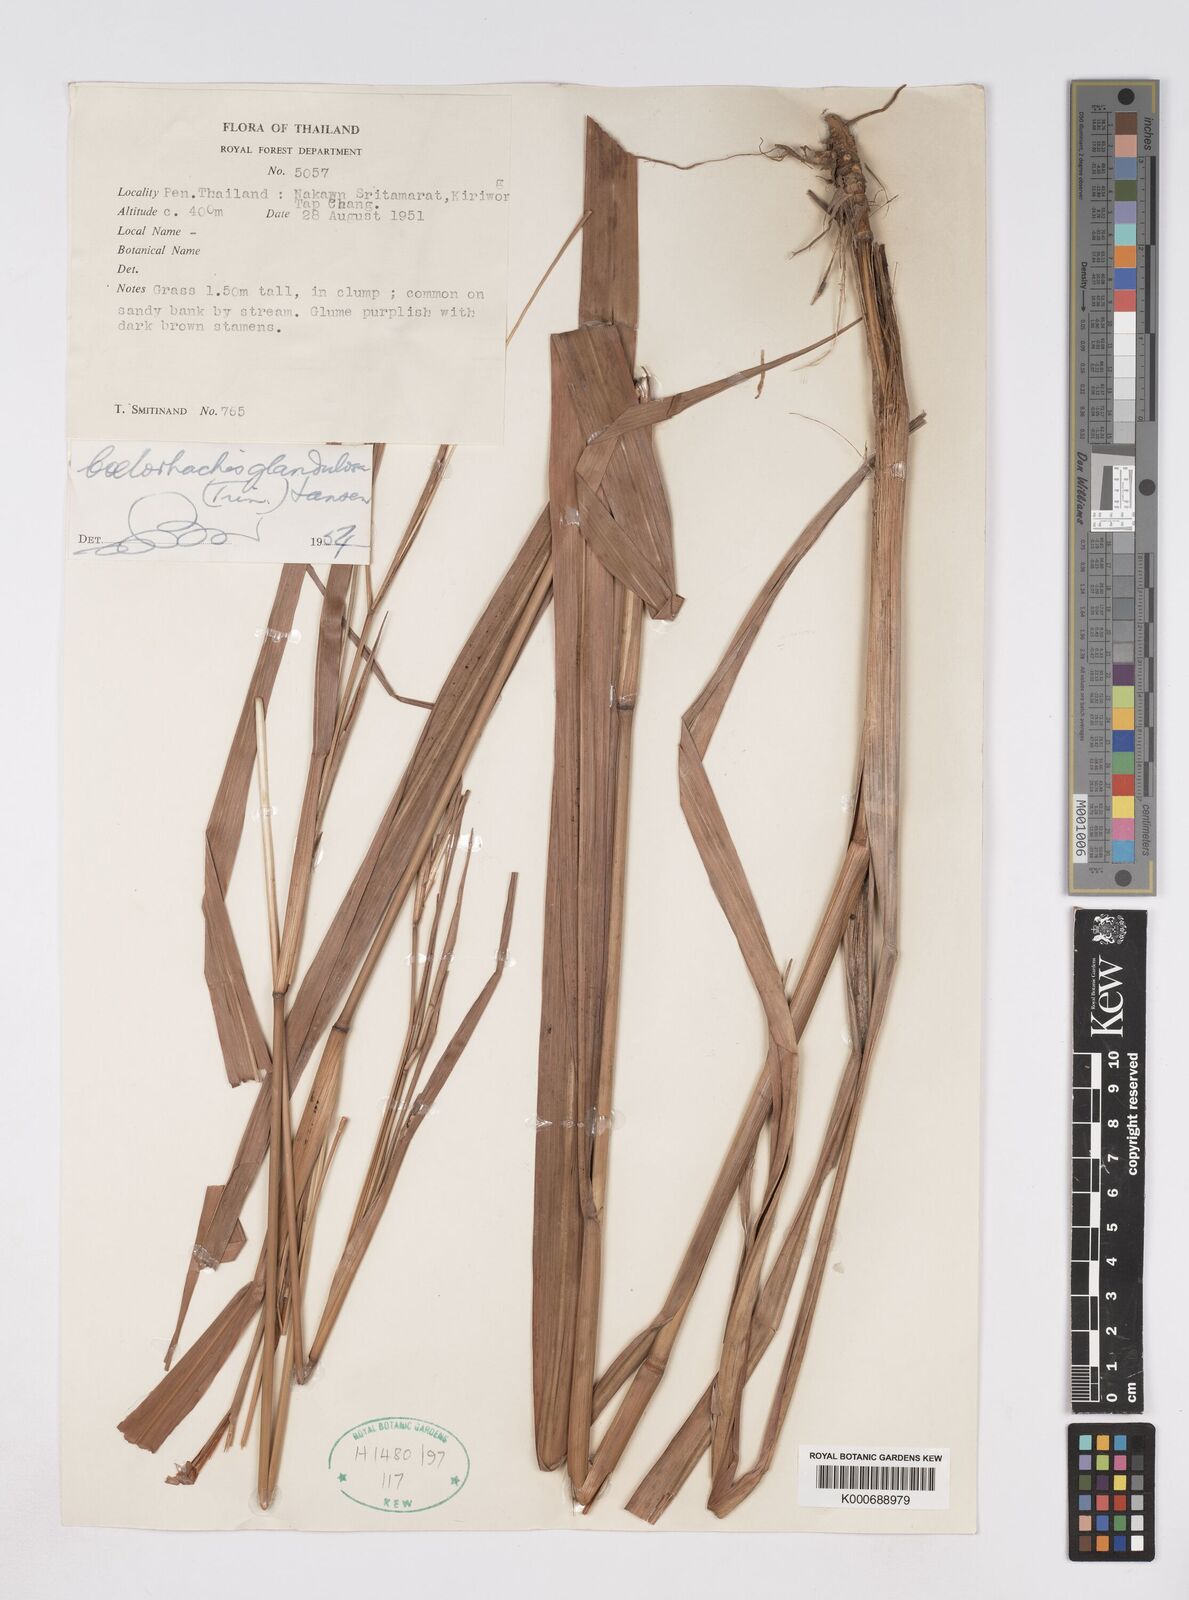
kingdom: Plantae
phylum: Tracheophyta
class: Liliopsida
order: Poales
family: Poaceae
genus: Rottboellia
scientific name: Rottboellia glandulosa
